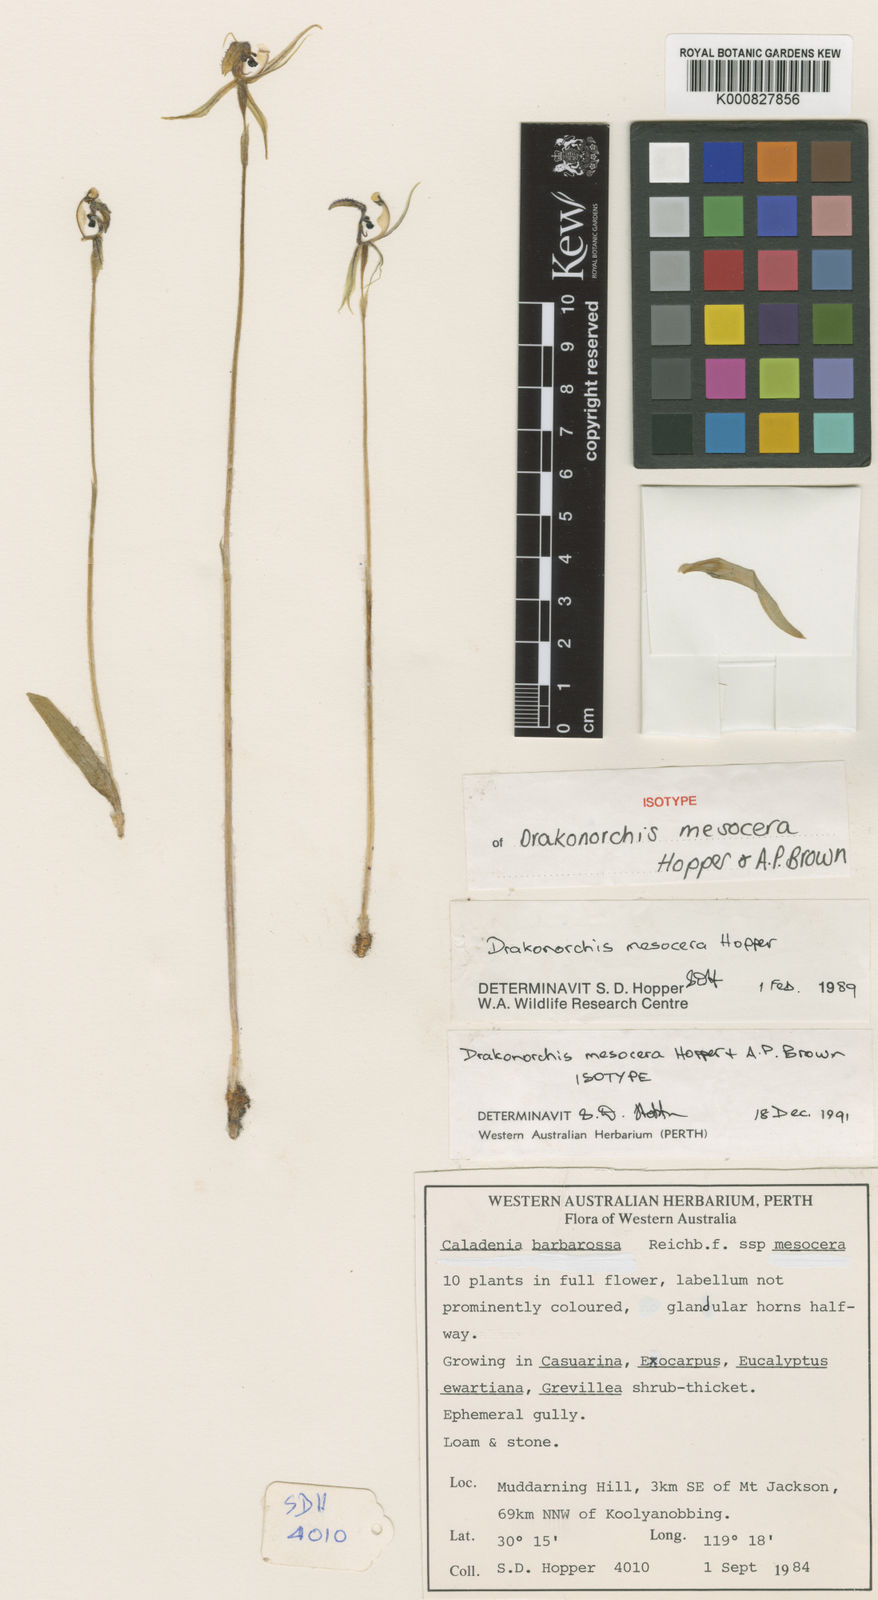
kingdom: Plantae
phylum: Tracheophyta
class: Liliopsida
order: Asparagales
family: Orchidaceae
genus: Caladenia
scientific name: Caladenia mesocera
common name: Narrow-lipped dragon orchid
